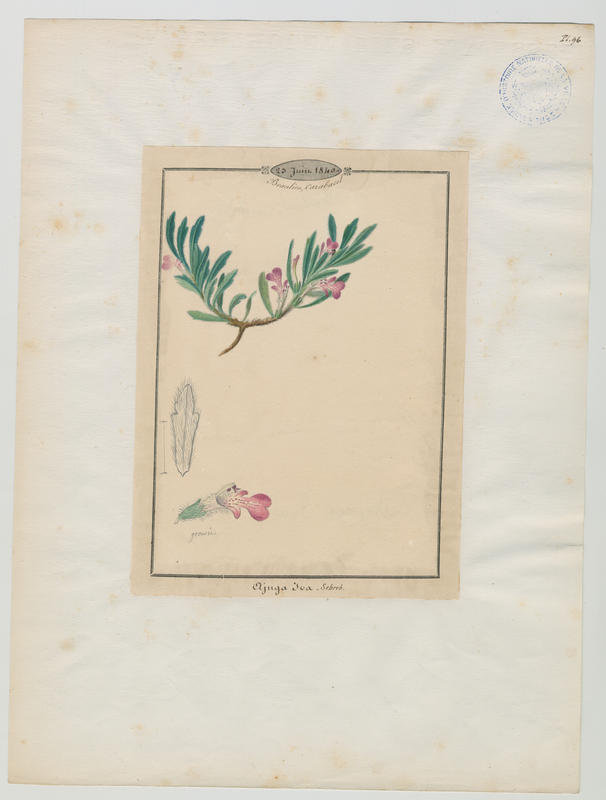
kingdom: Plantae
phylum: Tracheophyta
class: Magnoliopsida
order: Lamiales
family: Lamiaceae
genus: Ajuga
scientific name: Ajuga iva
